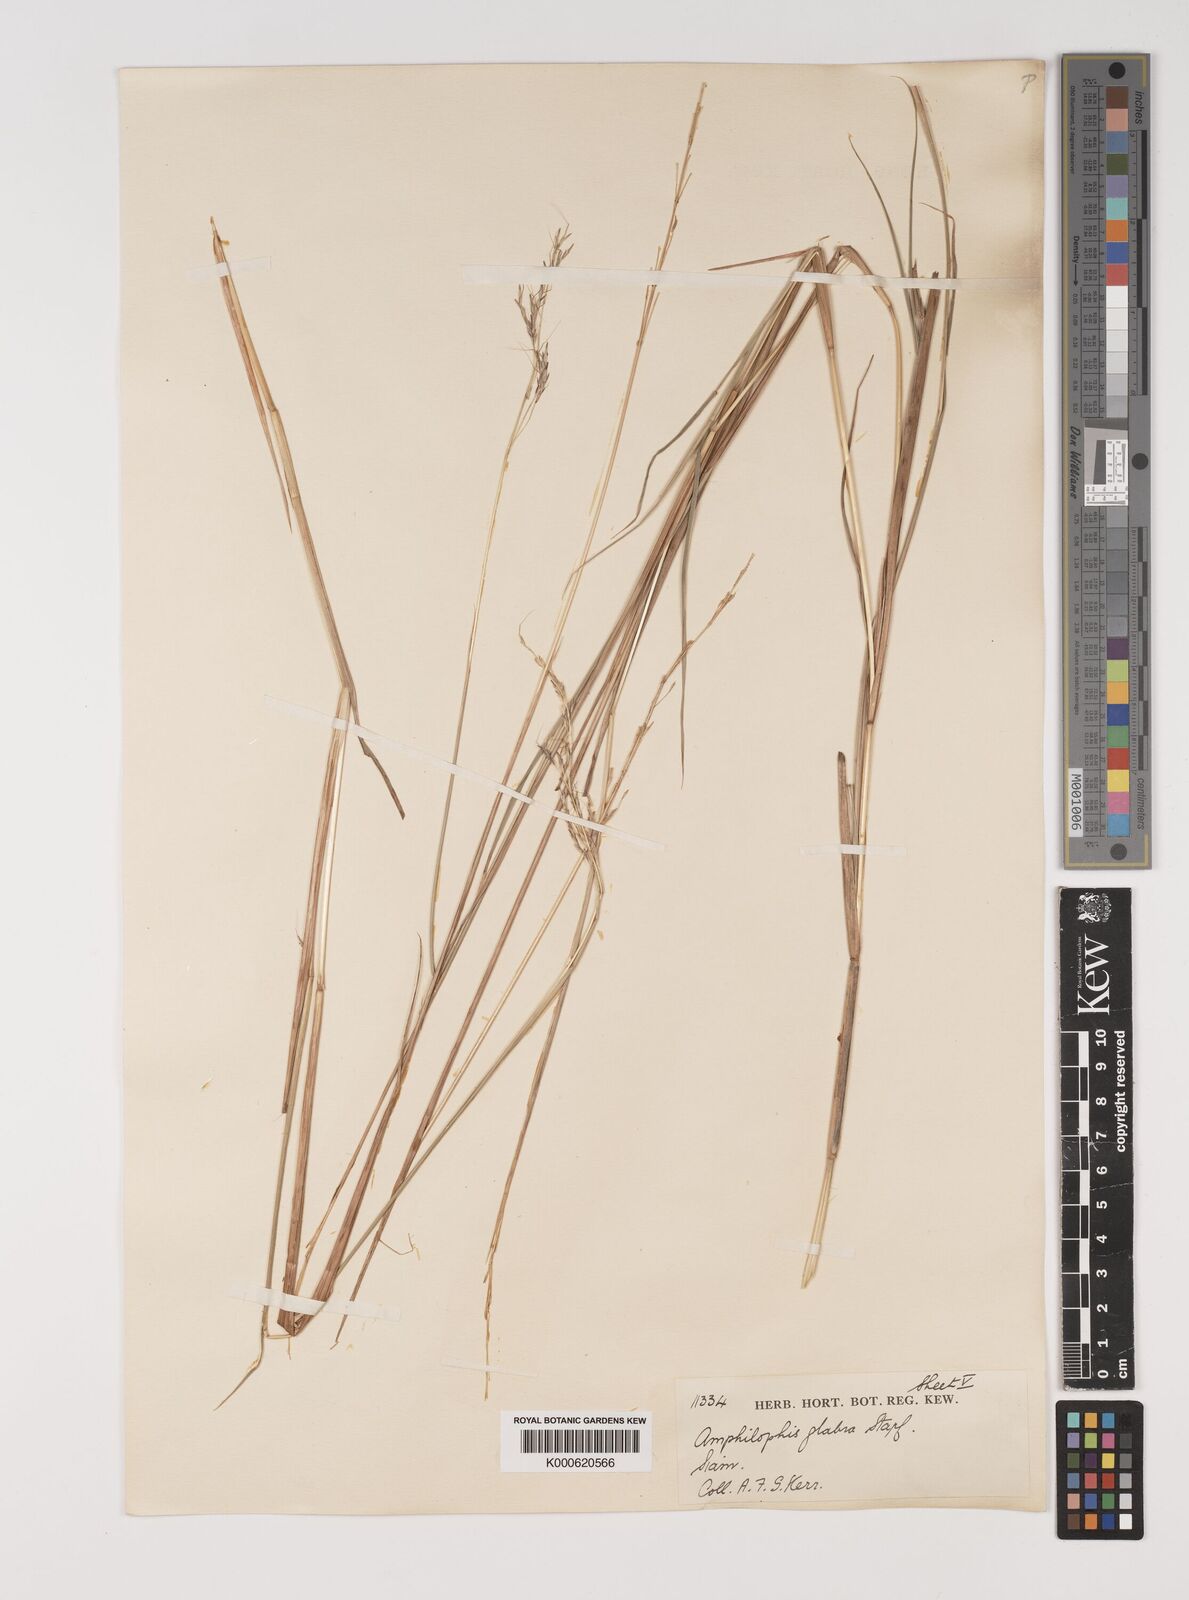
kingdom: Plantae
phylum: Tracheophyta
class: Liliopsida
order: Poales
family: Poaceae
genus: Bothriochloa
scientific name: Bothriochloa bladhii
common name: Caucasian bluestem
